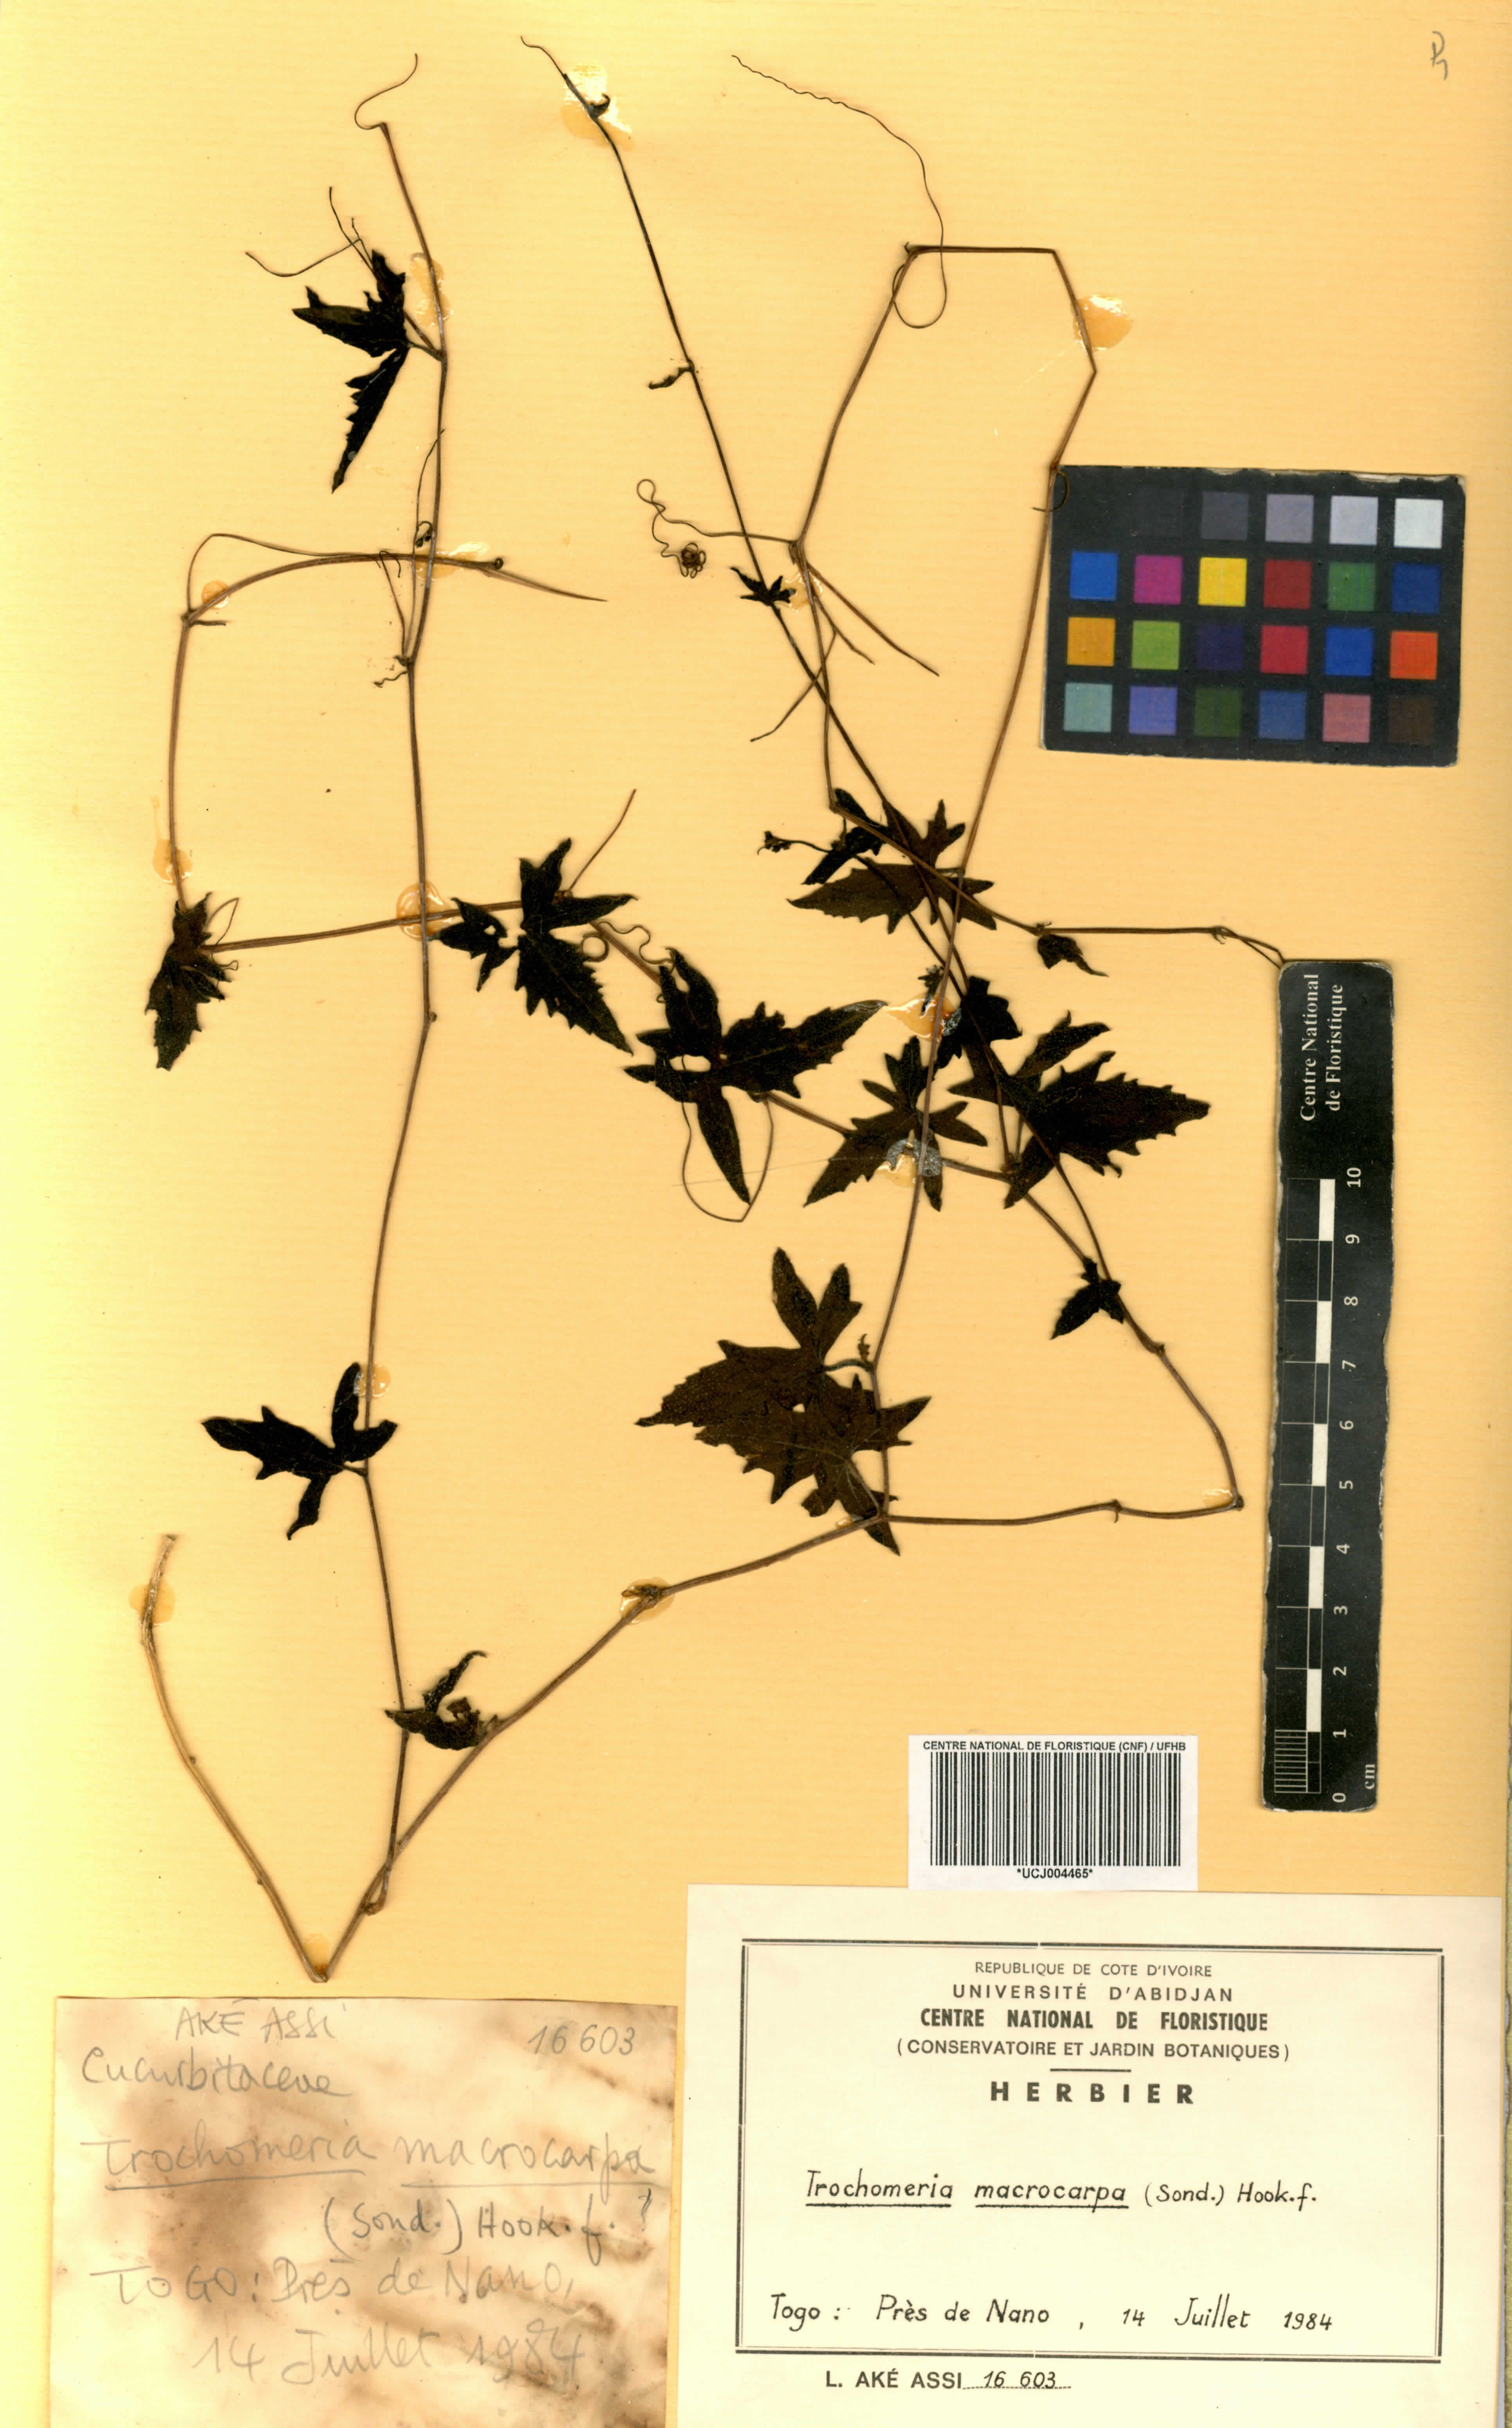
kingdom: Plantae
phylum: Tracheophyta
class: Magnoliopsida
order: Cucurbitales
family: Cucurbitaceae
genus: Trochomeria
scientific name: Trochomeria macrocarpa
